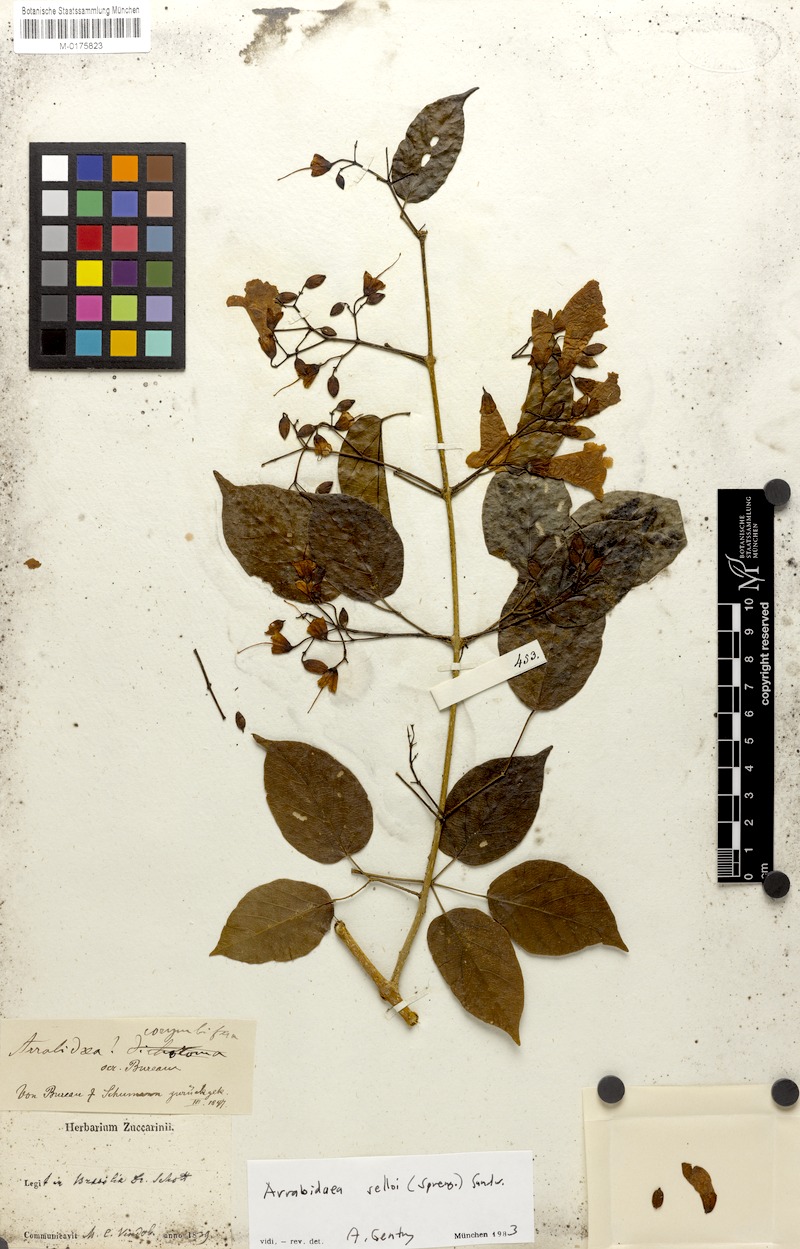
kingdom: Plantae
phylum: Tracheophyta
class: Magnoliopsida
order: Lamiales
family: Bignoniaceae
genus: Tanaecium
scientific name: Tanaecium selloi
